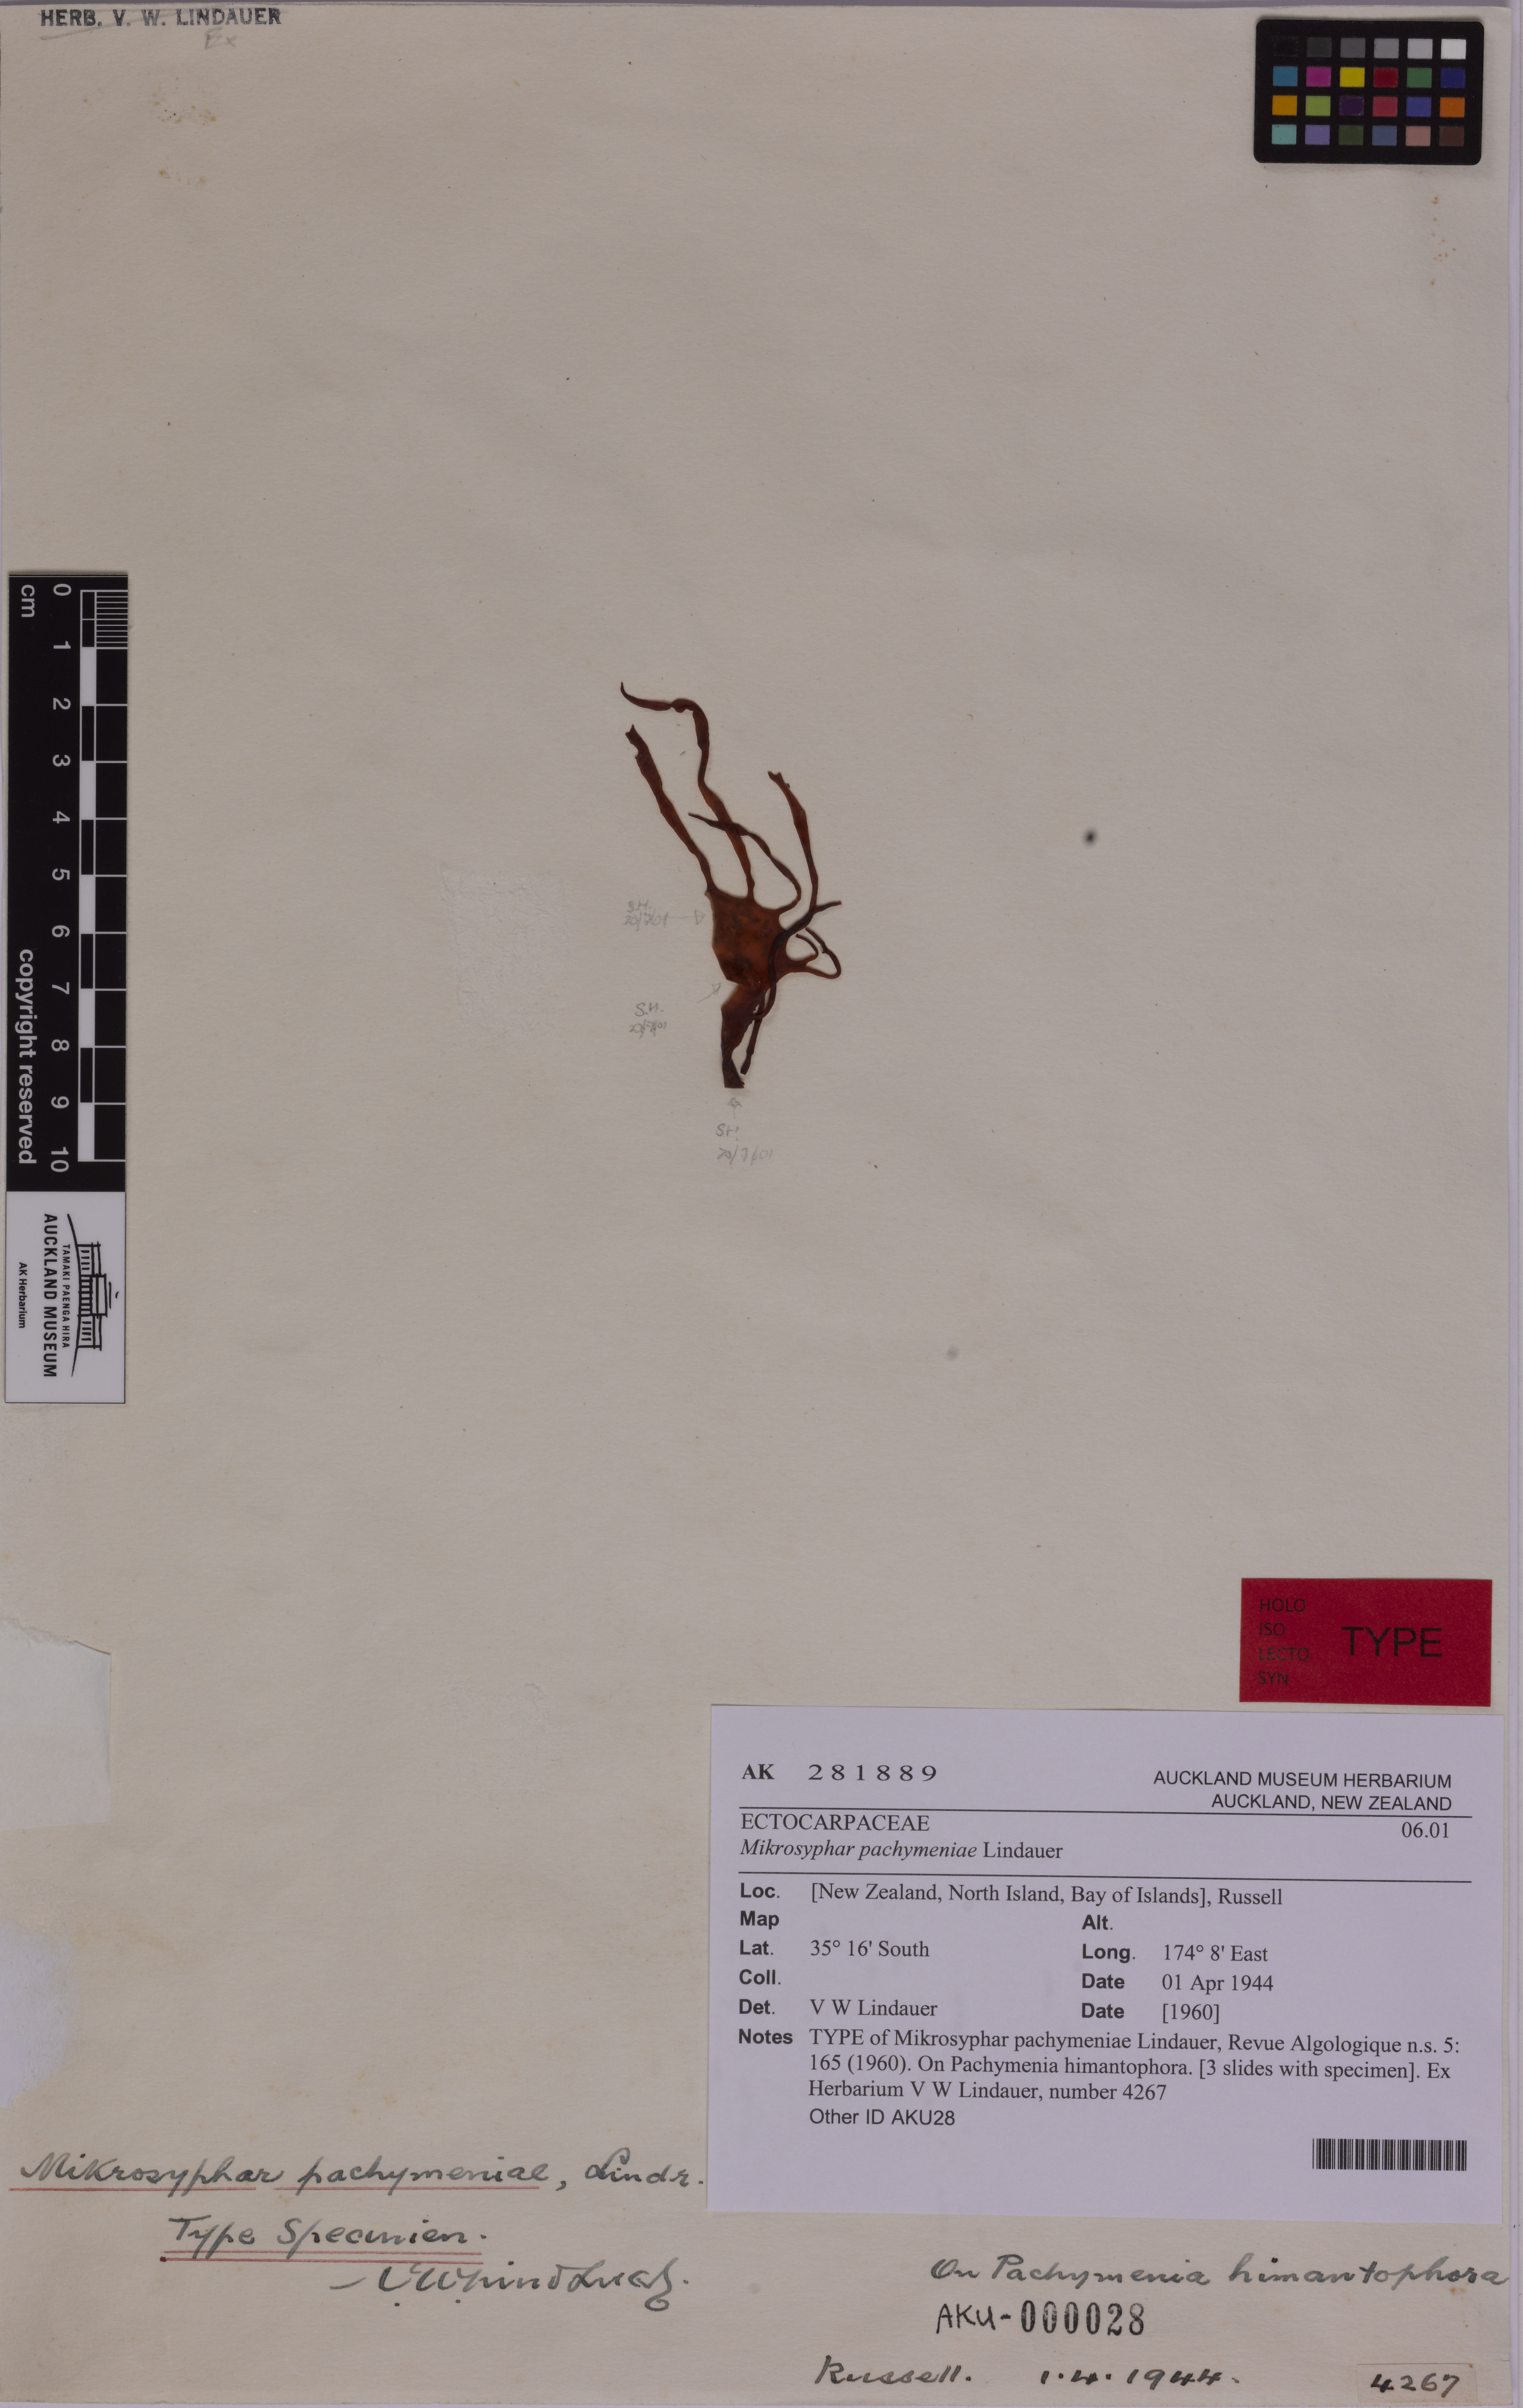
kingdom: Chromista
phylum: Ochrophyta
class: Phaeophyceae
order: Ectocarpales
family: Chordariaceae
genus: Mikrosyphar
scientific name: Mikrosyphar pachymeniae
